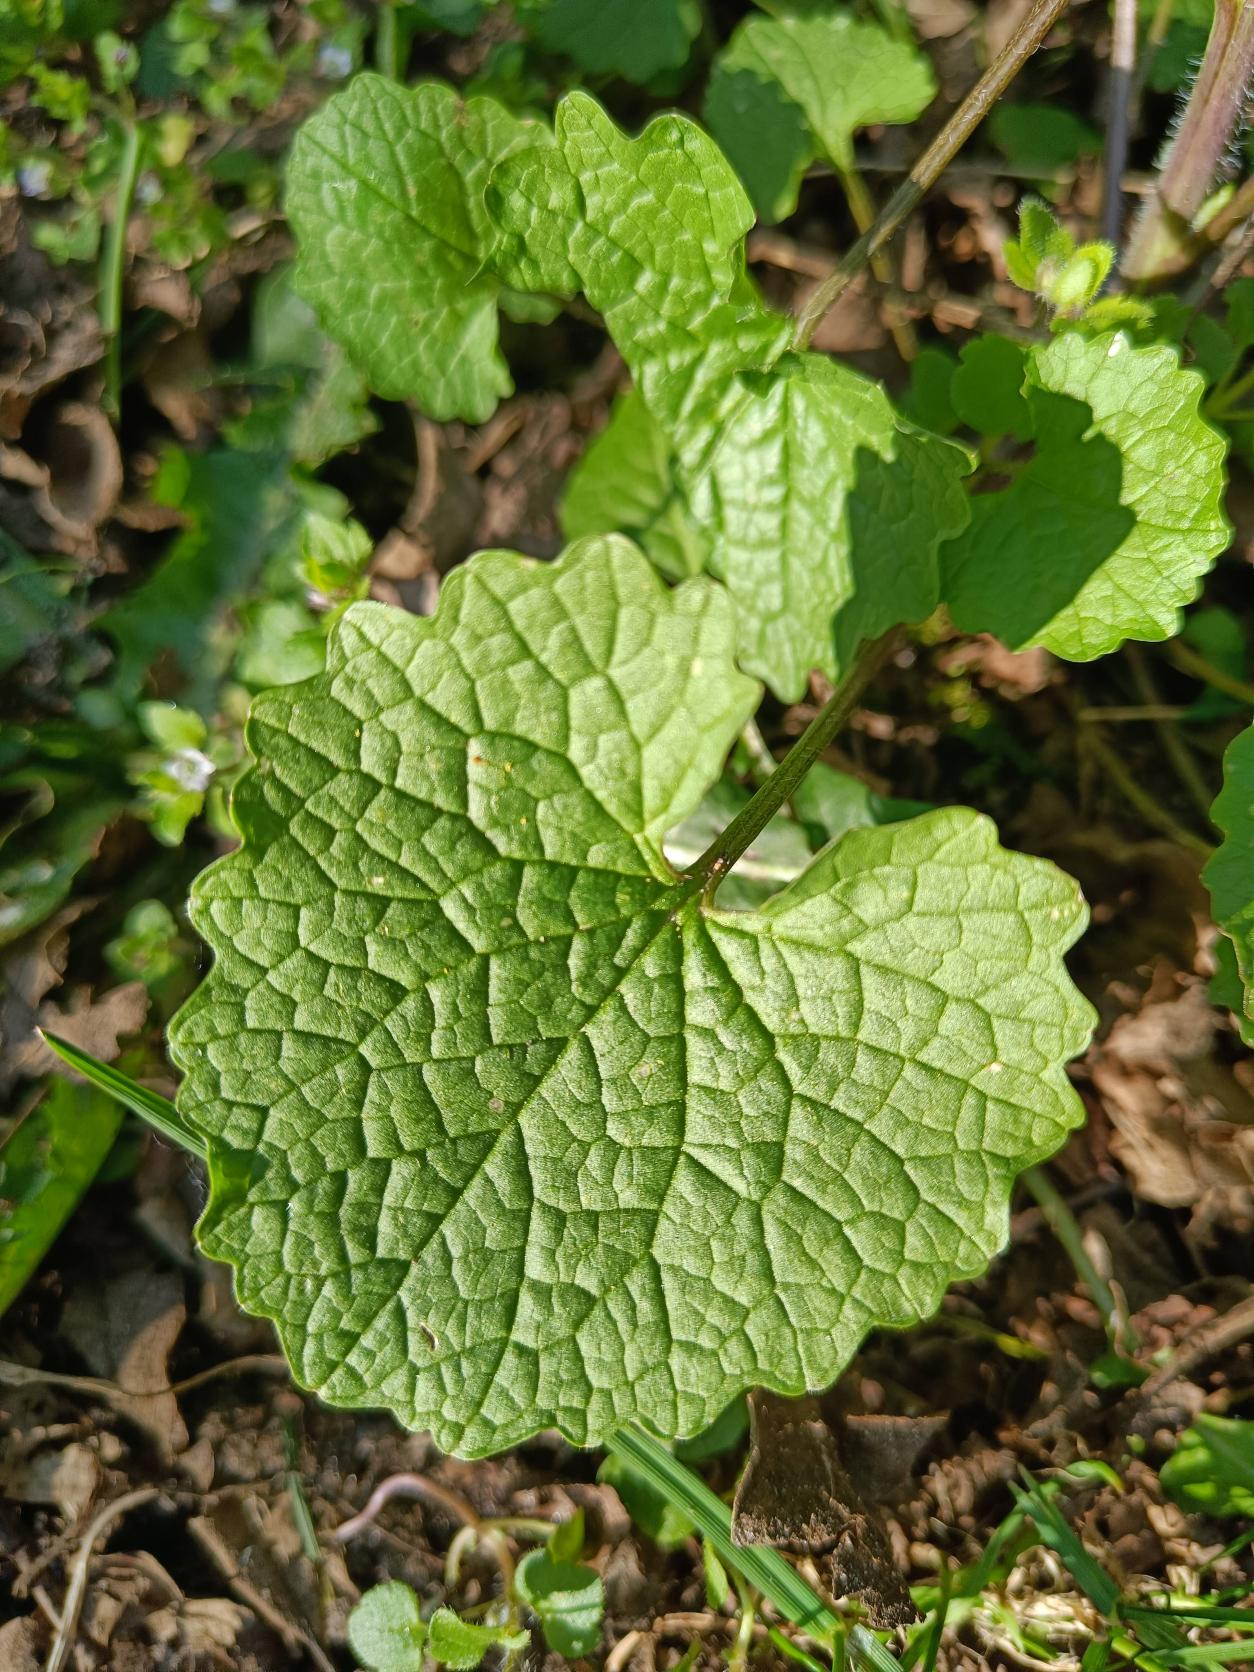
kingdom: Plantae
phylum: Tracheophyta
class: Magnoliopsida
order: Brassicales
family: Brassicaceae
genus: Alliaria
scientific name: Alliaria petiolata
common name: Løgkarse
